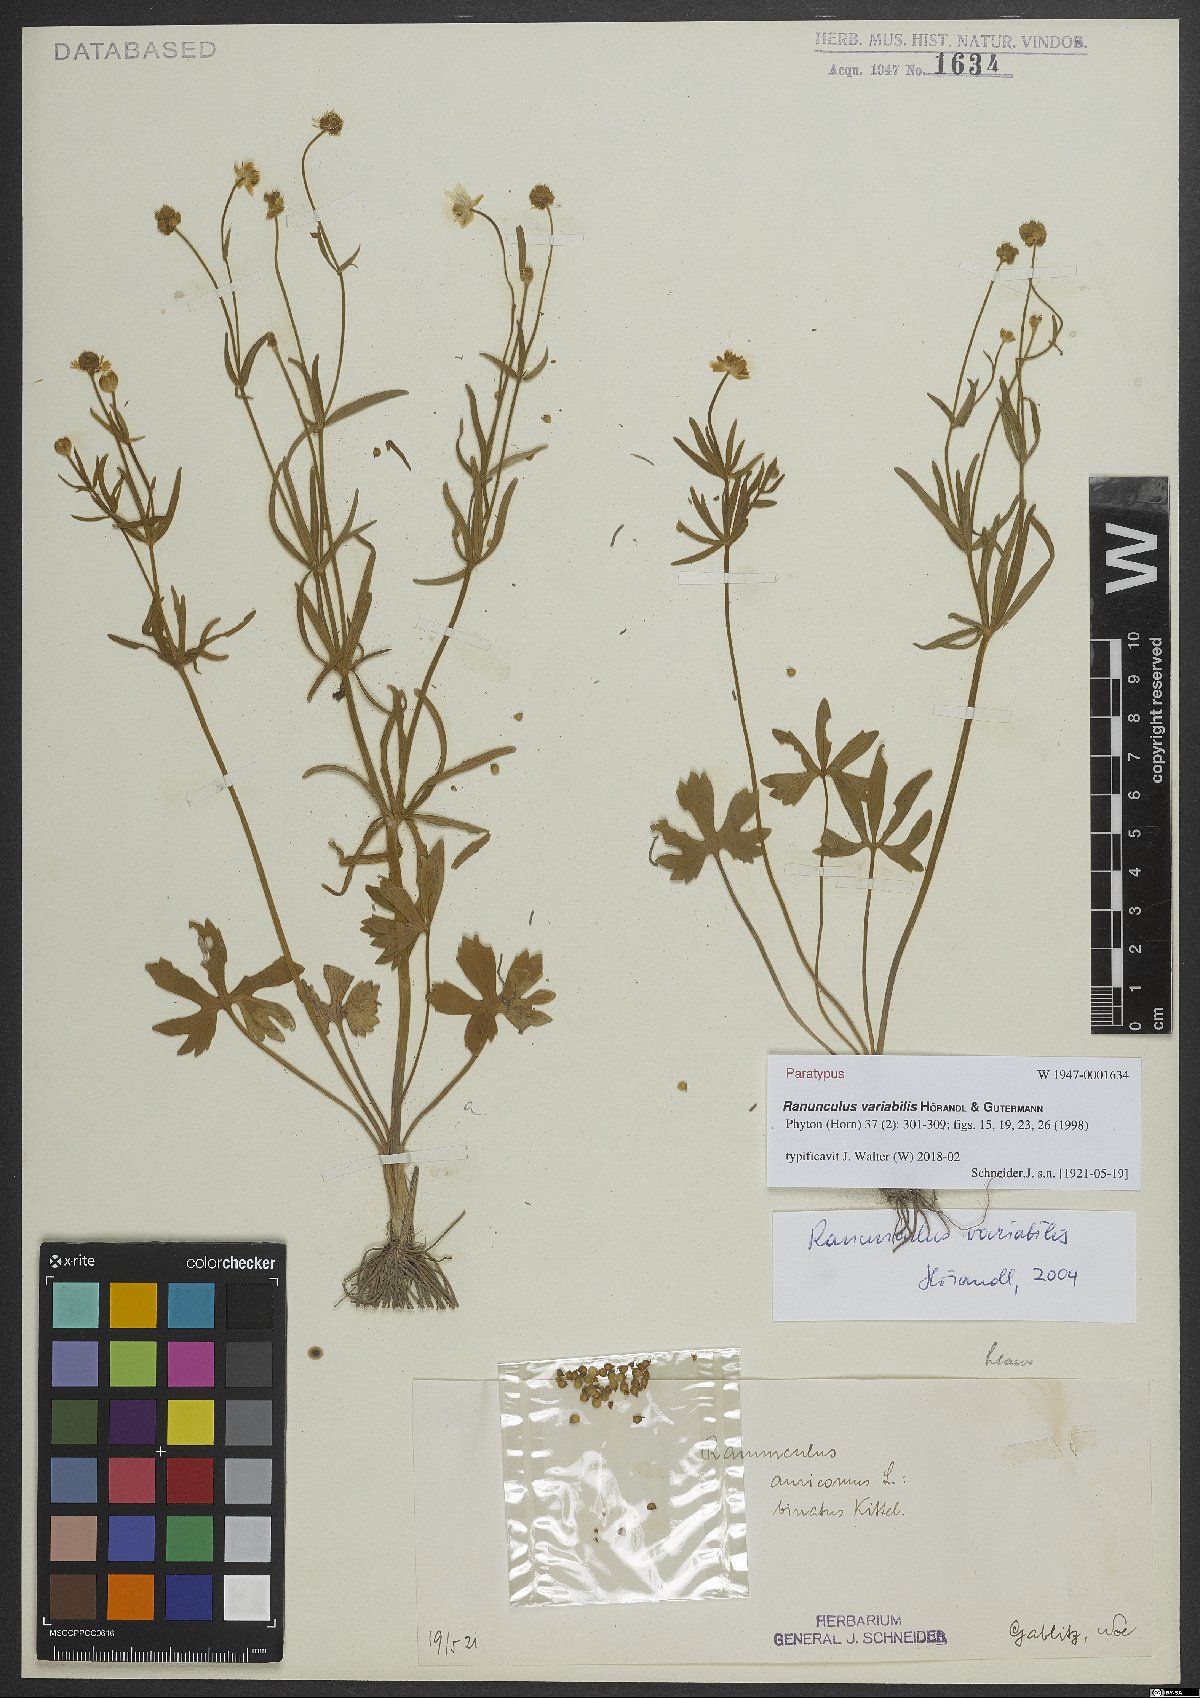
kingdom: Plantae
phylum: Tracheophyta
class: Magnoliopsida
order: Ranunculales
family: Ranunculaceae
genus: Ranunculus
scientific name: Ranunculus variabilis
